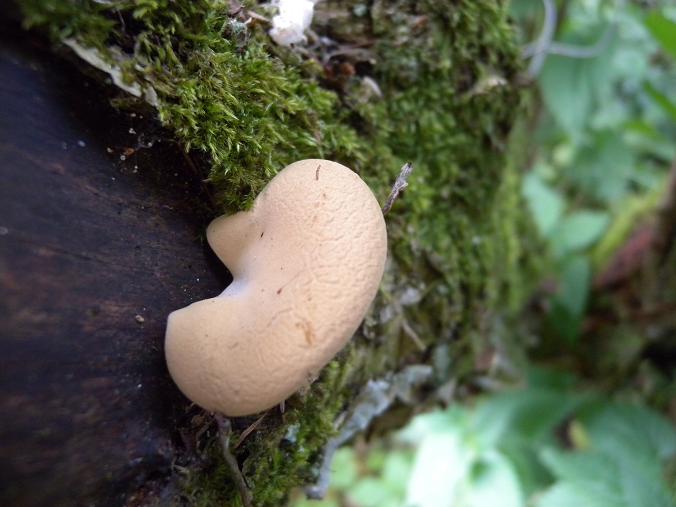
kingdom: Fungi
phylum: Basidiomycota
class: Agaricomycetes
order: Polyporales
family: Polyporaceae
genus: Cerioporus
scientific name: Cerioporus varius
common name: foranderlig stilkporesvamp
